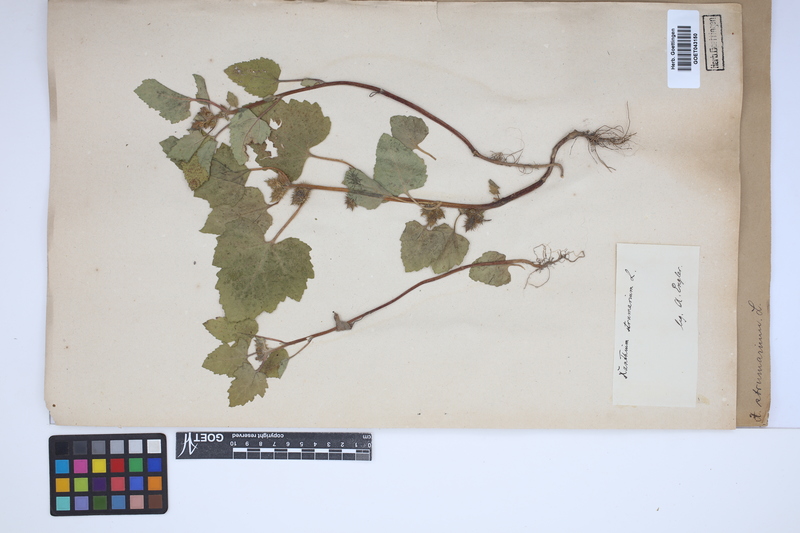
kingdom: Plantae
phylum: Tracheophyta
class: Magnoliopsida
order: Asterales
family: Asteraceae
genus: Xanthium
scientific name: Xanthium strumarium
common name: Rough cocklebur
